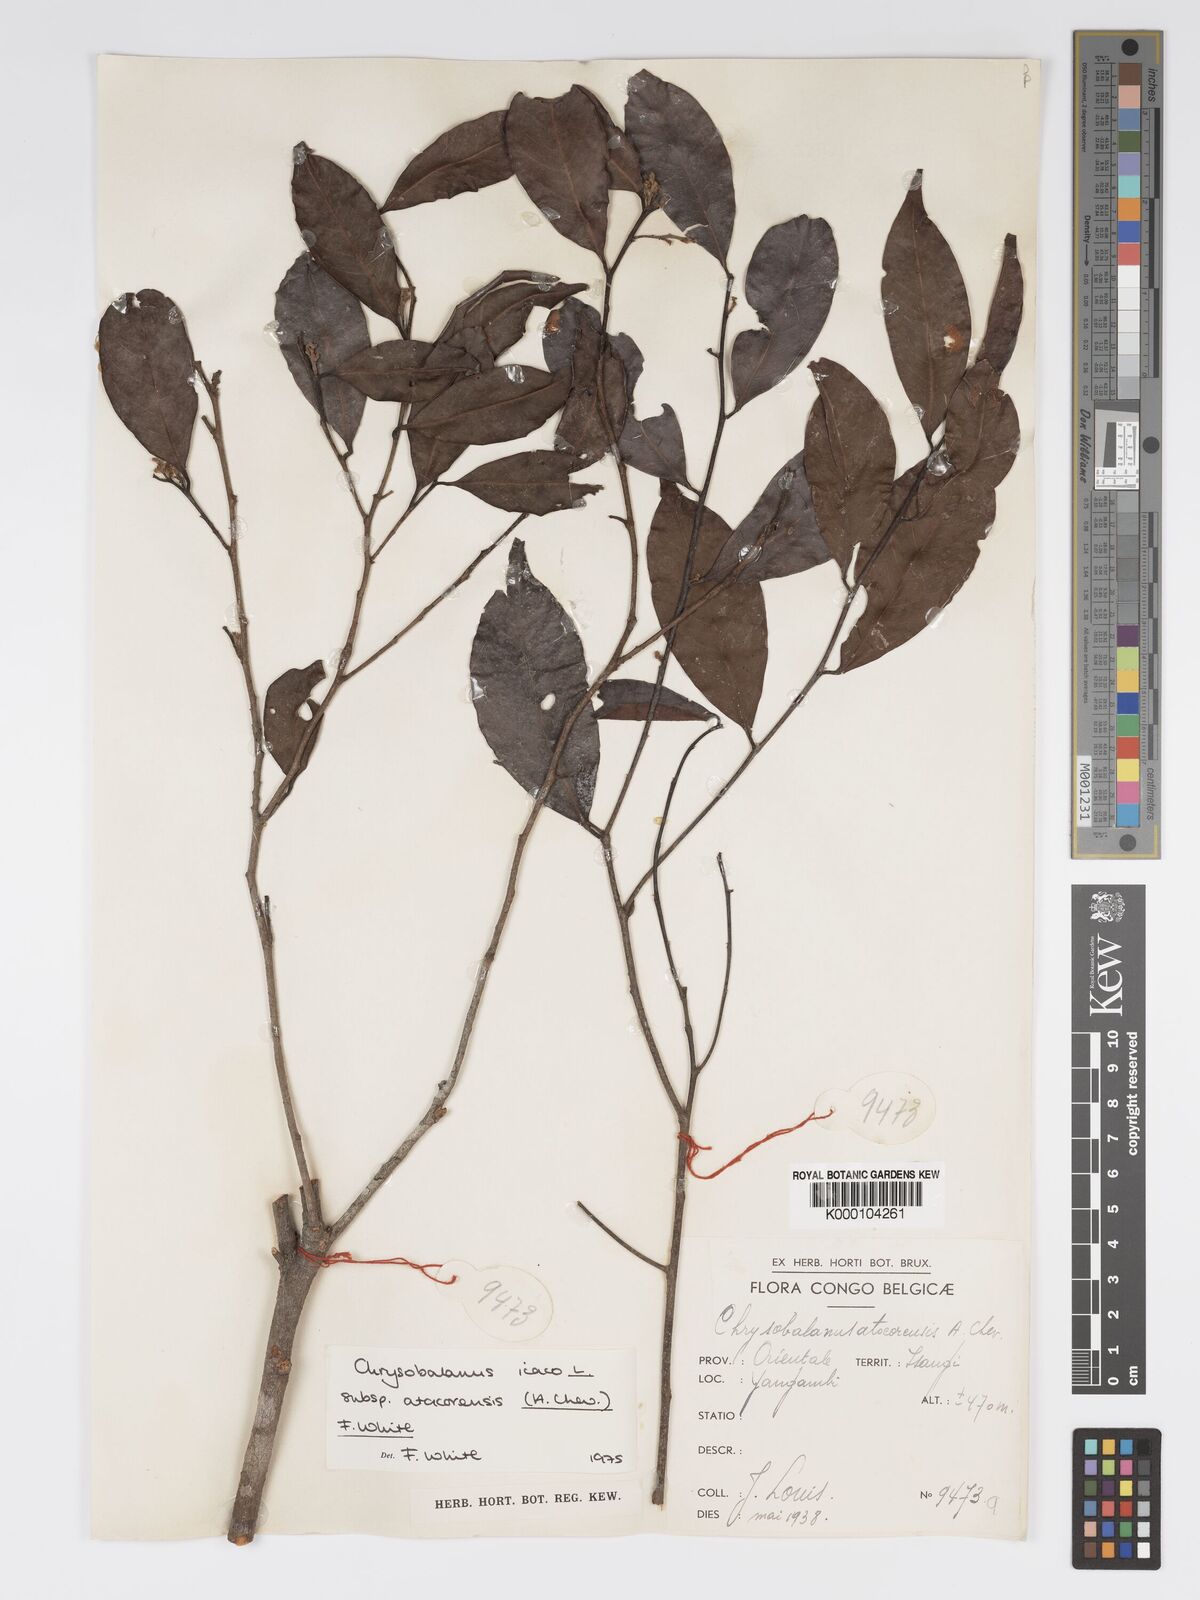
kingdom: Plantae
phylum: Tracheophyta
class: Magnoliopsida
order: Malpighiales
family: Chrysobalanaceae
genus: Chrysobalanus
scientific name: Chrysobalanus icaco
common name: Coco plum
